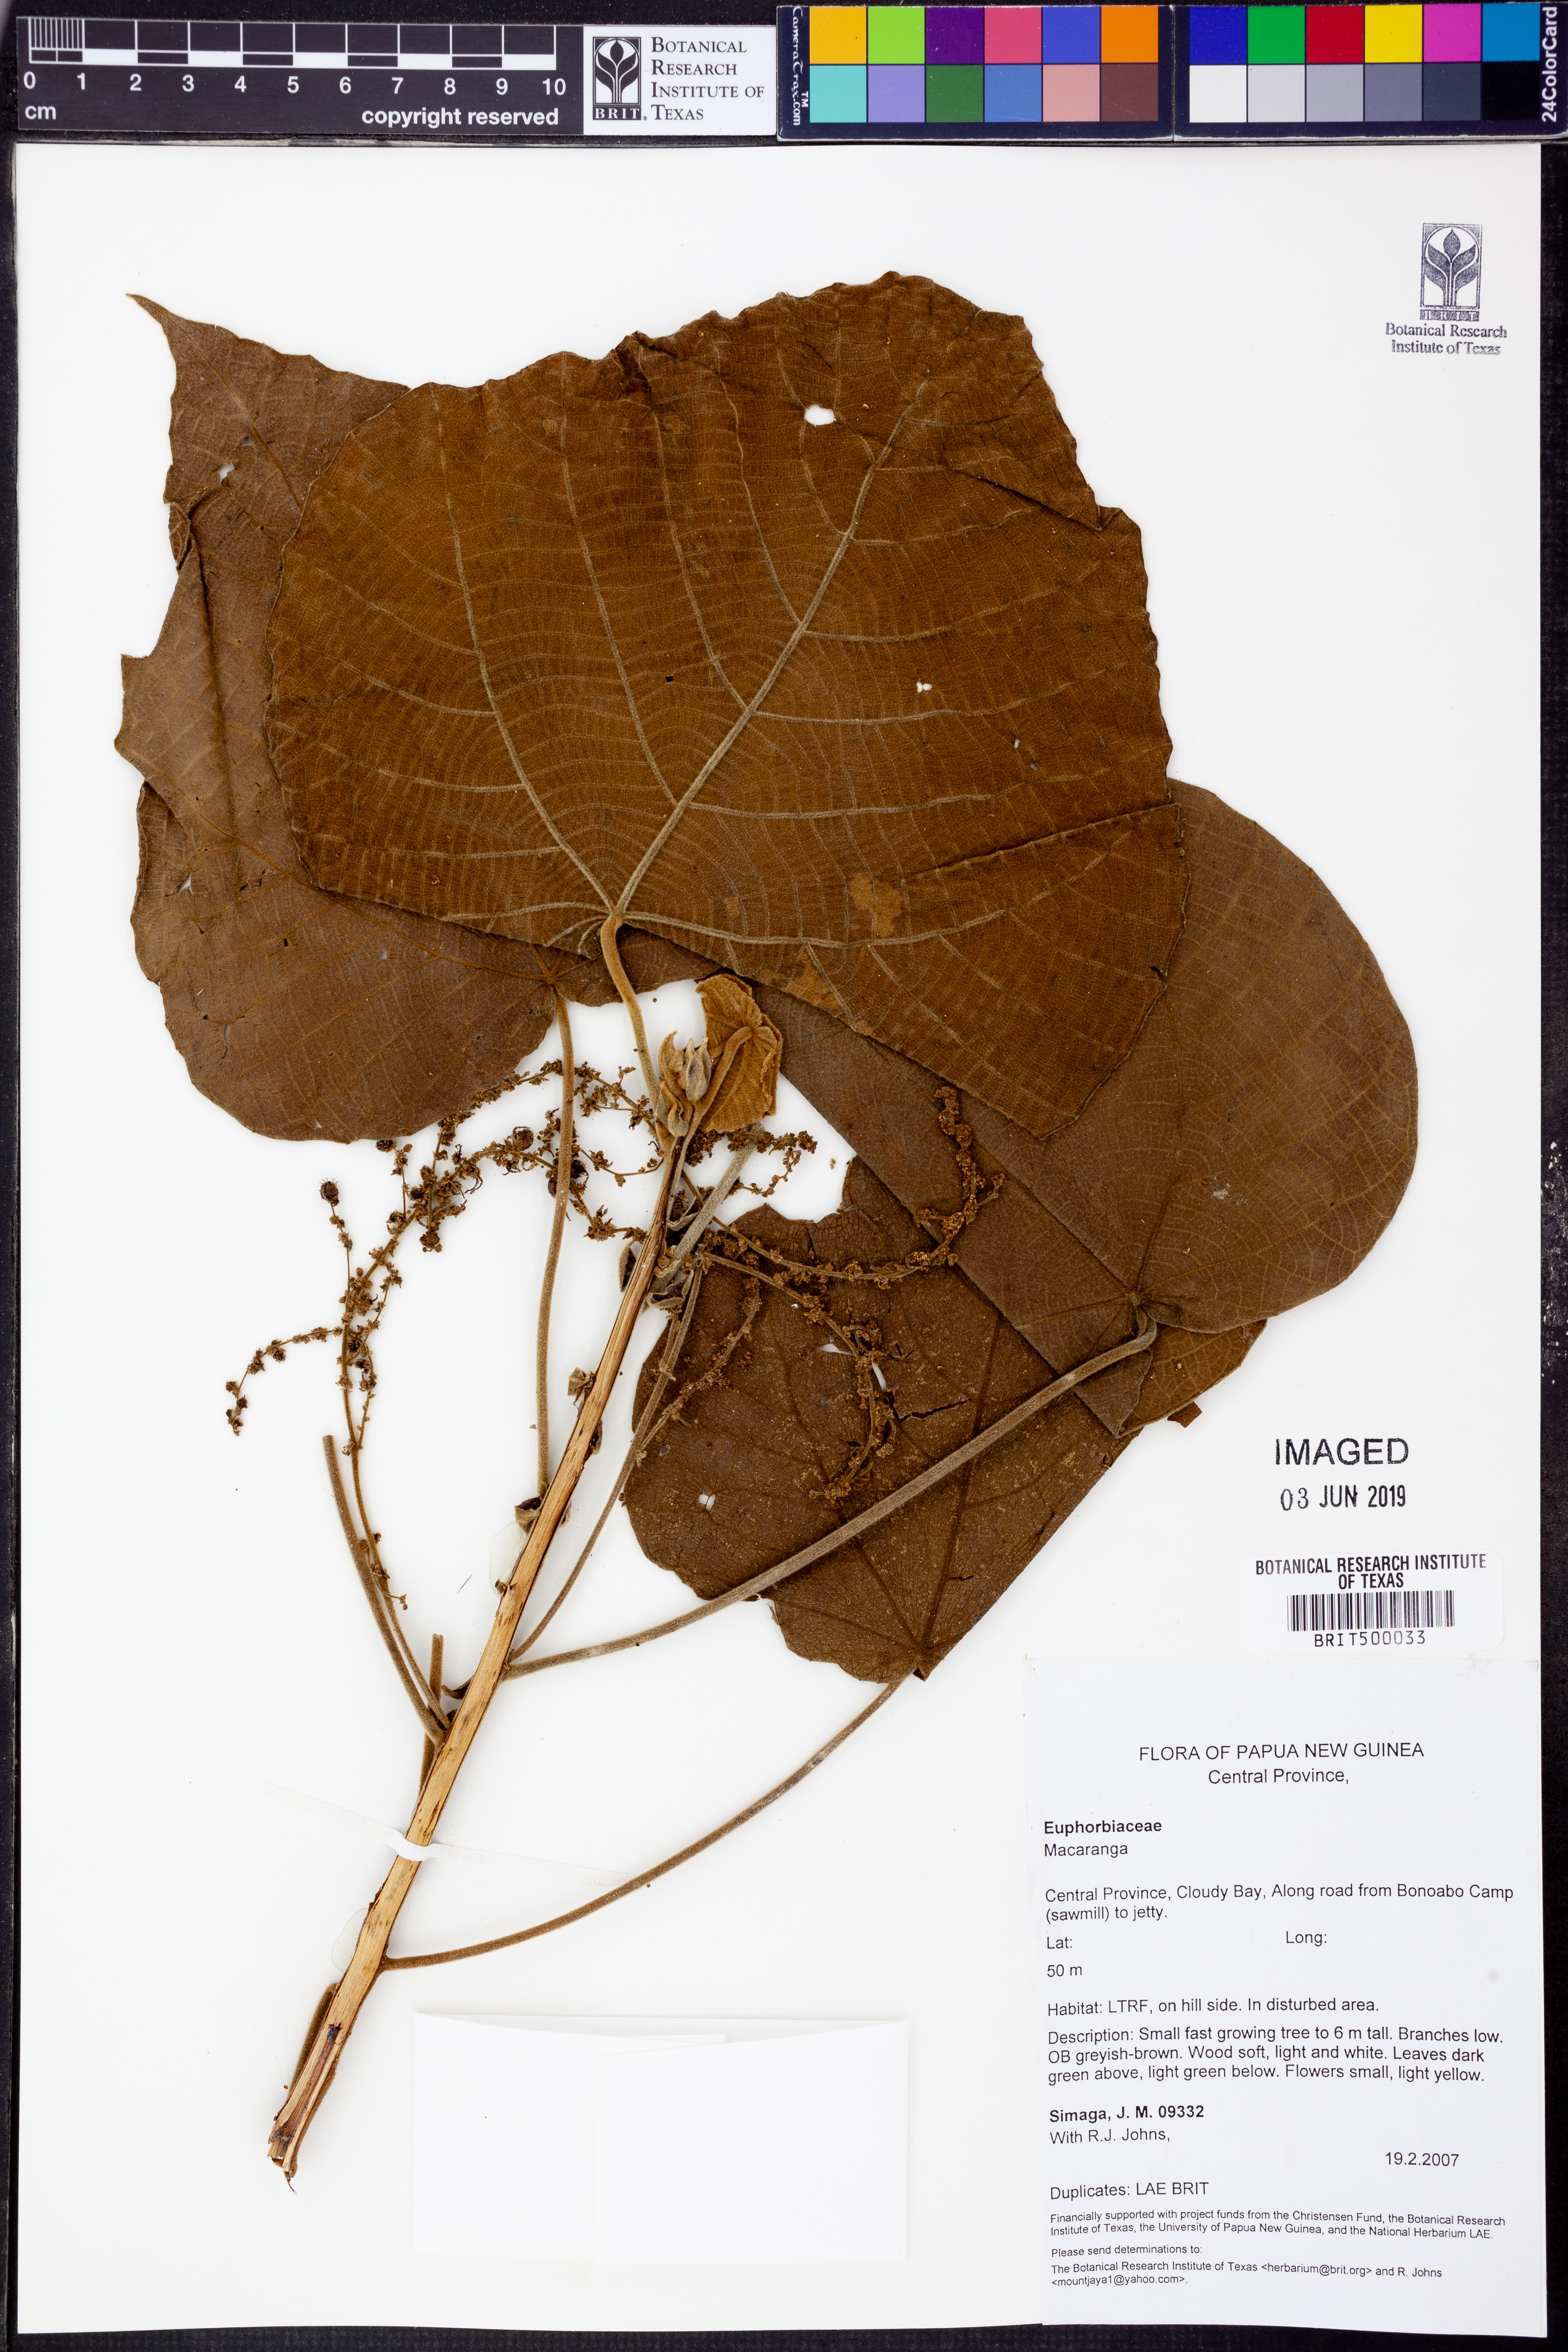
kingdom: Plantae
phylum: Tracheophyta
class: Magnoliopsida
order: Malpighiales
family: Euphorbiaceae
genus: Macaranga
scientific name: Macaranga
